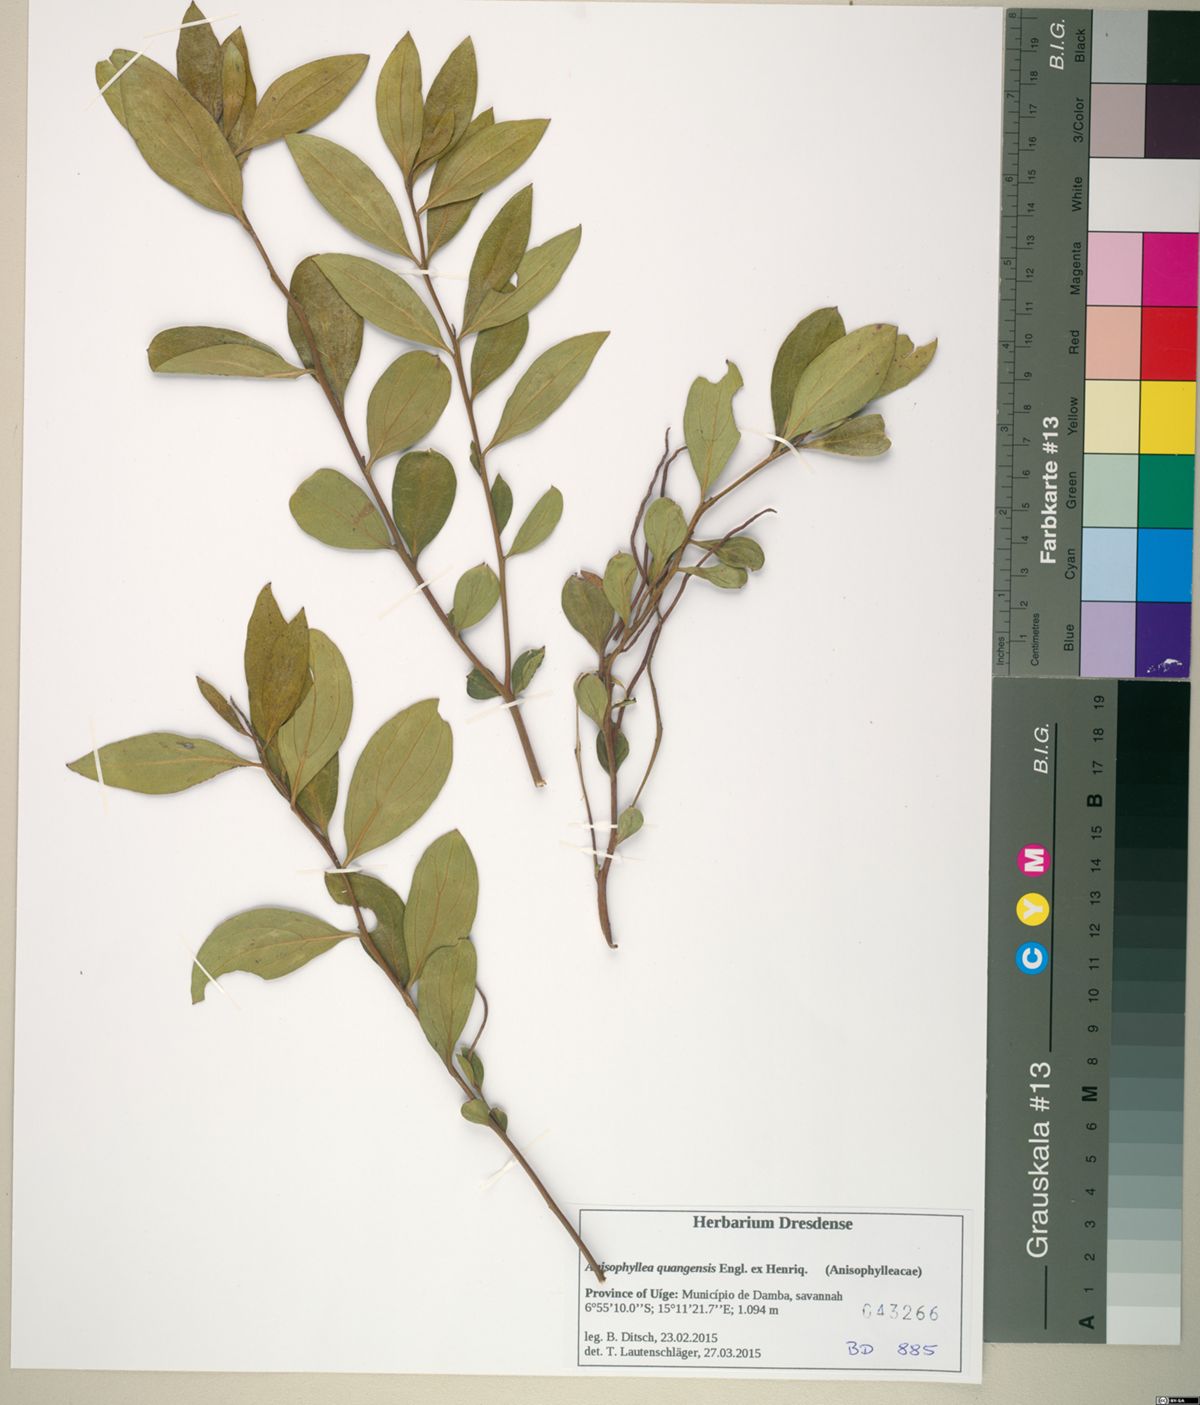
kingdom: Plantae
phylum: Tracheophyta
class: Magnoliopsida
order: Cucurbitales
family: Anisophylleaceae
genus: Anisophyllea
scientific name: Anisophyllea quangensis
